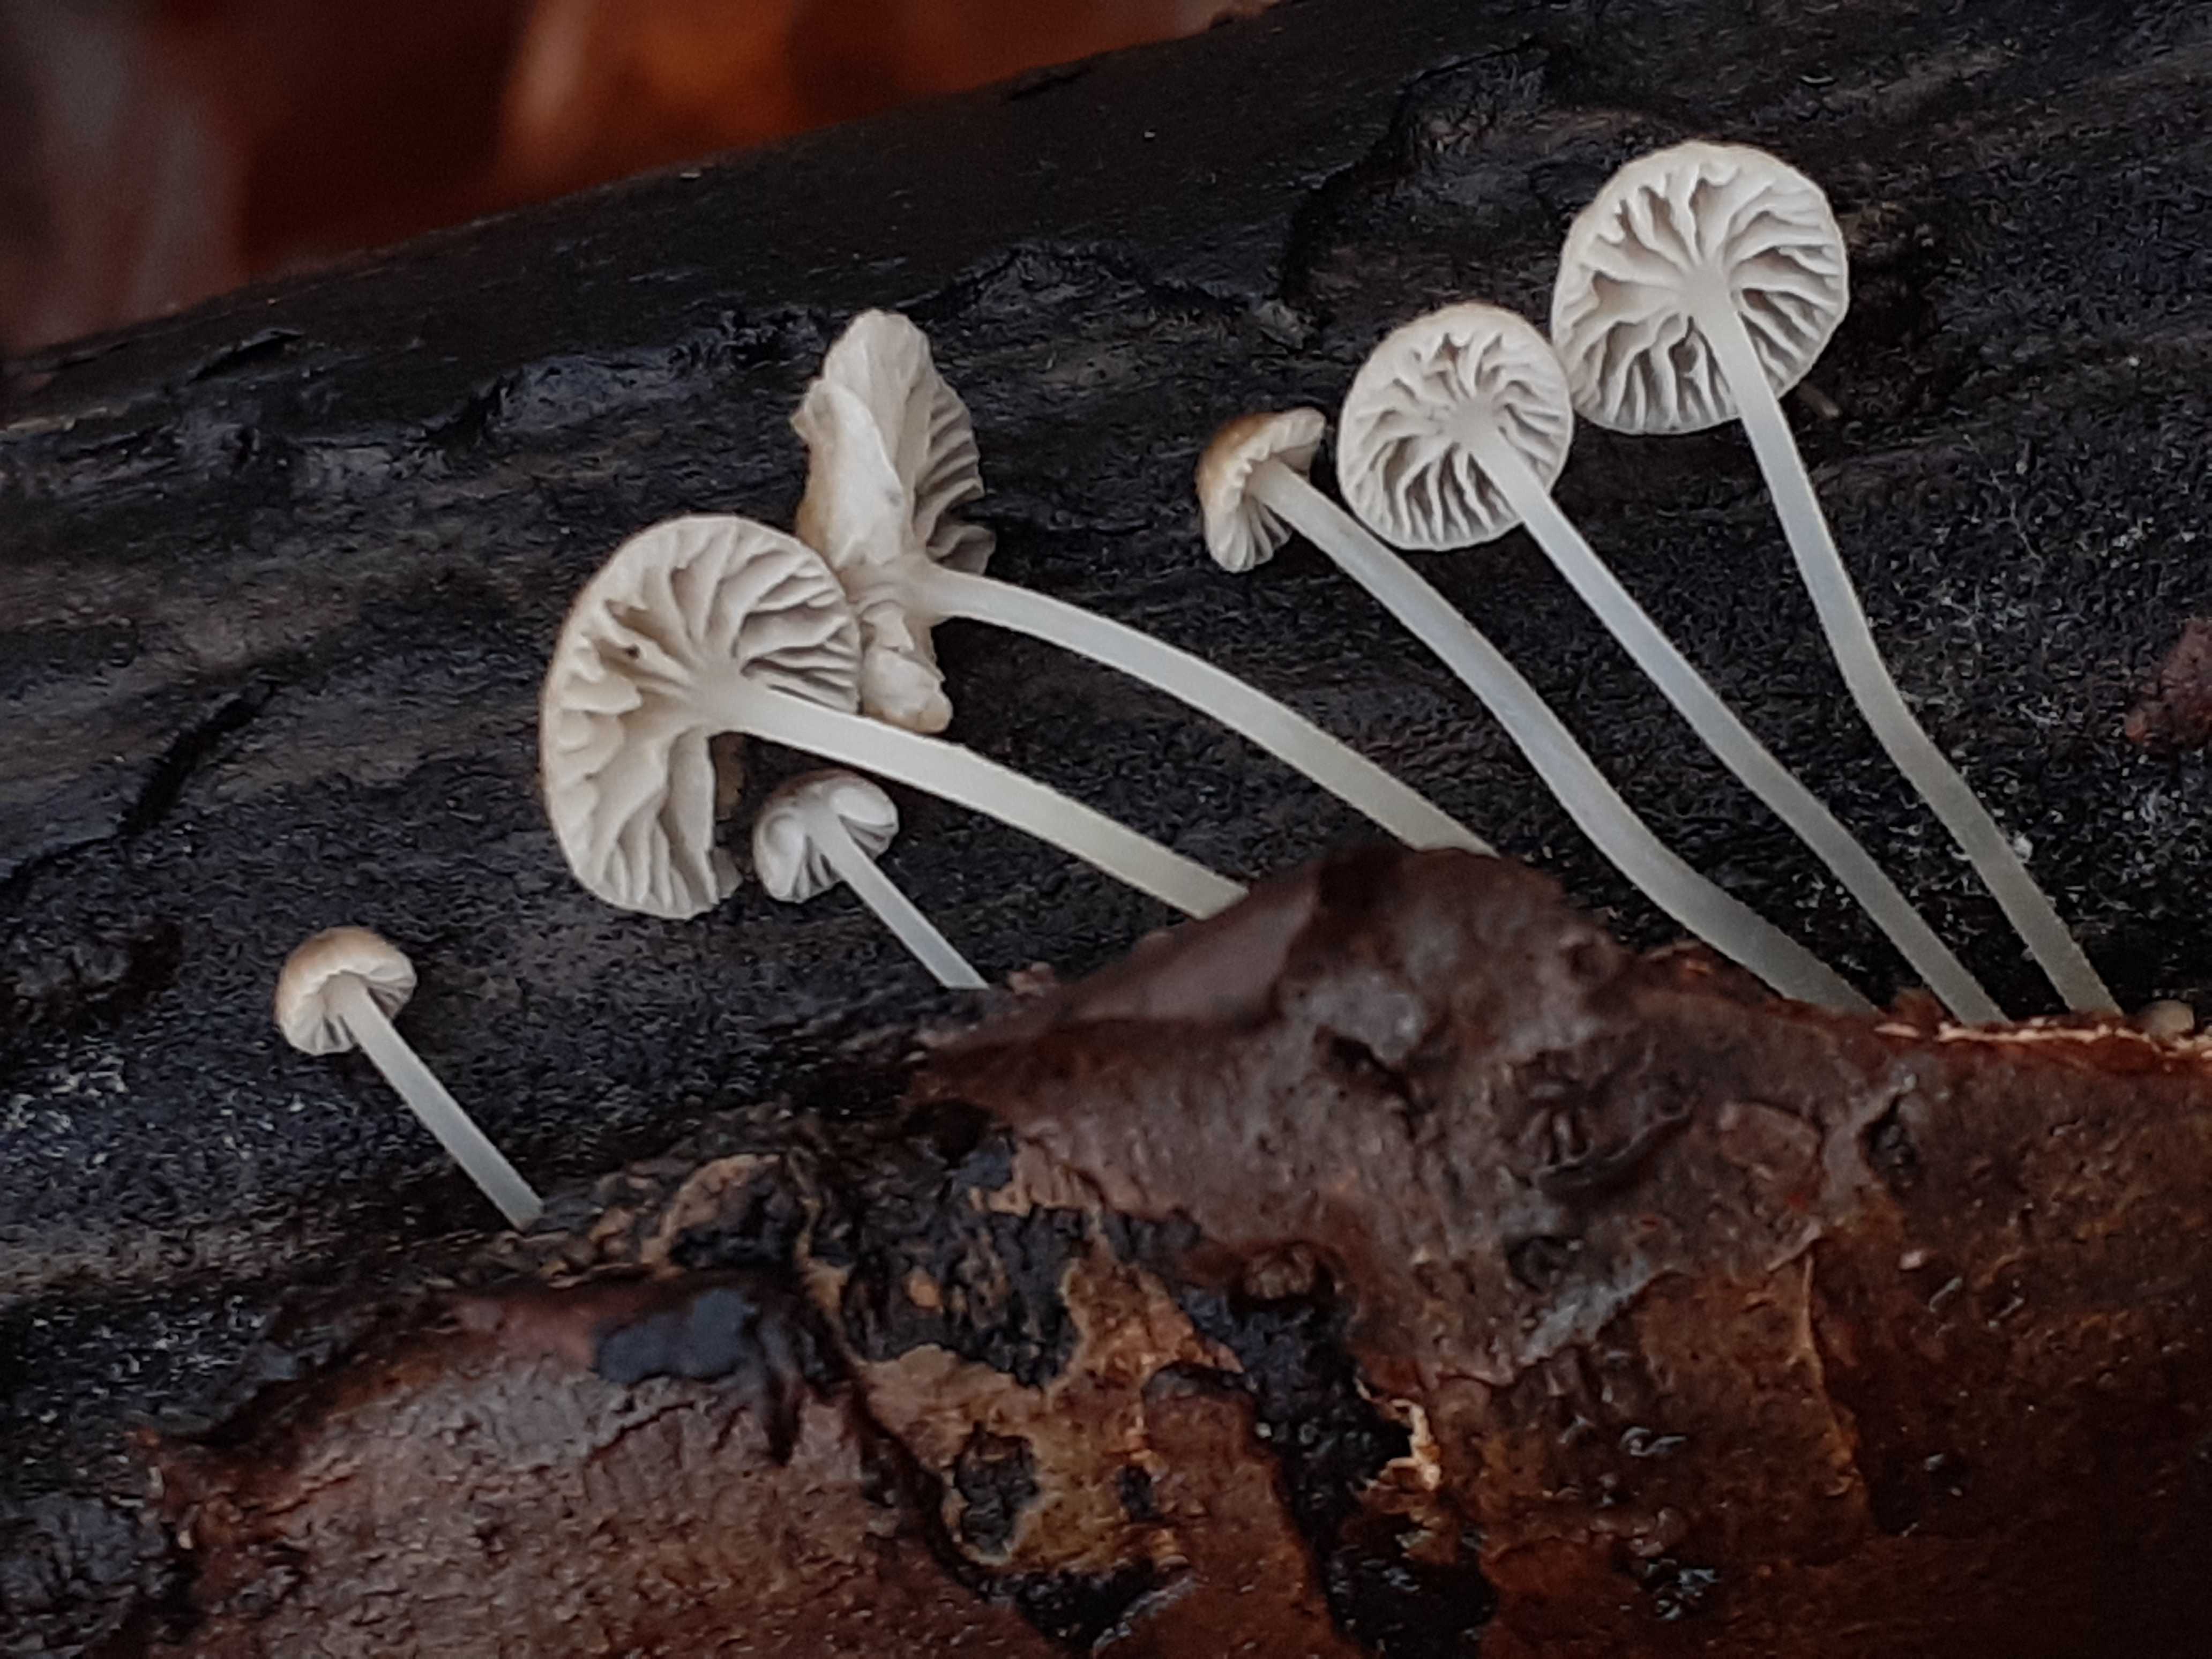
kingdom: Fungi
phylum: Basidiomycota
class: Agaricomycetes
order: Agaricales
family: Porotheleaceae
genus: Phloeomana
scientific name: Phloeomana speirea
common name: kvist-huesvamp
